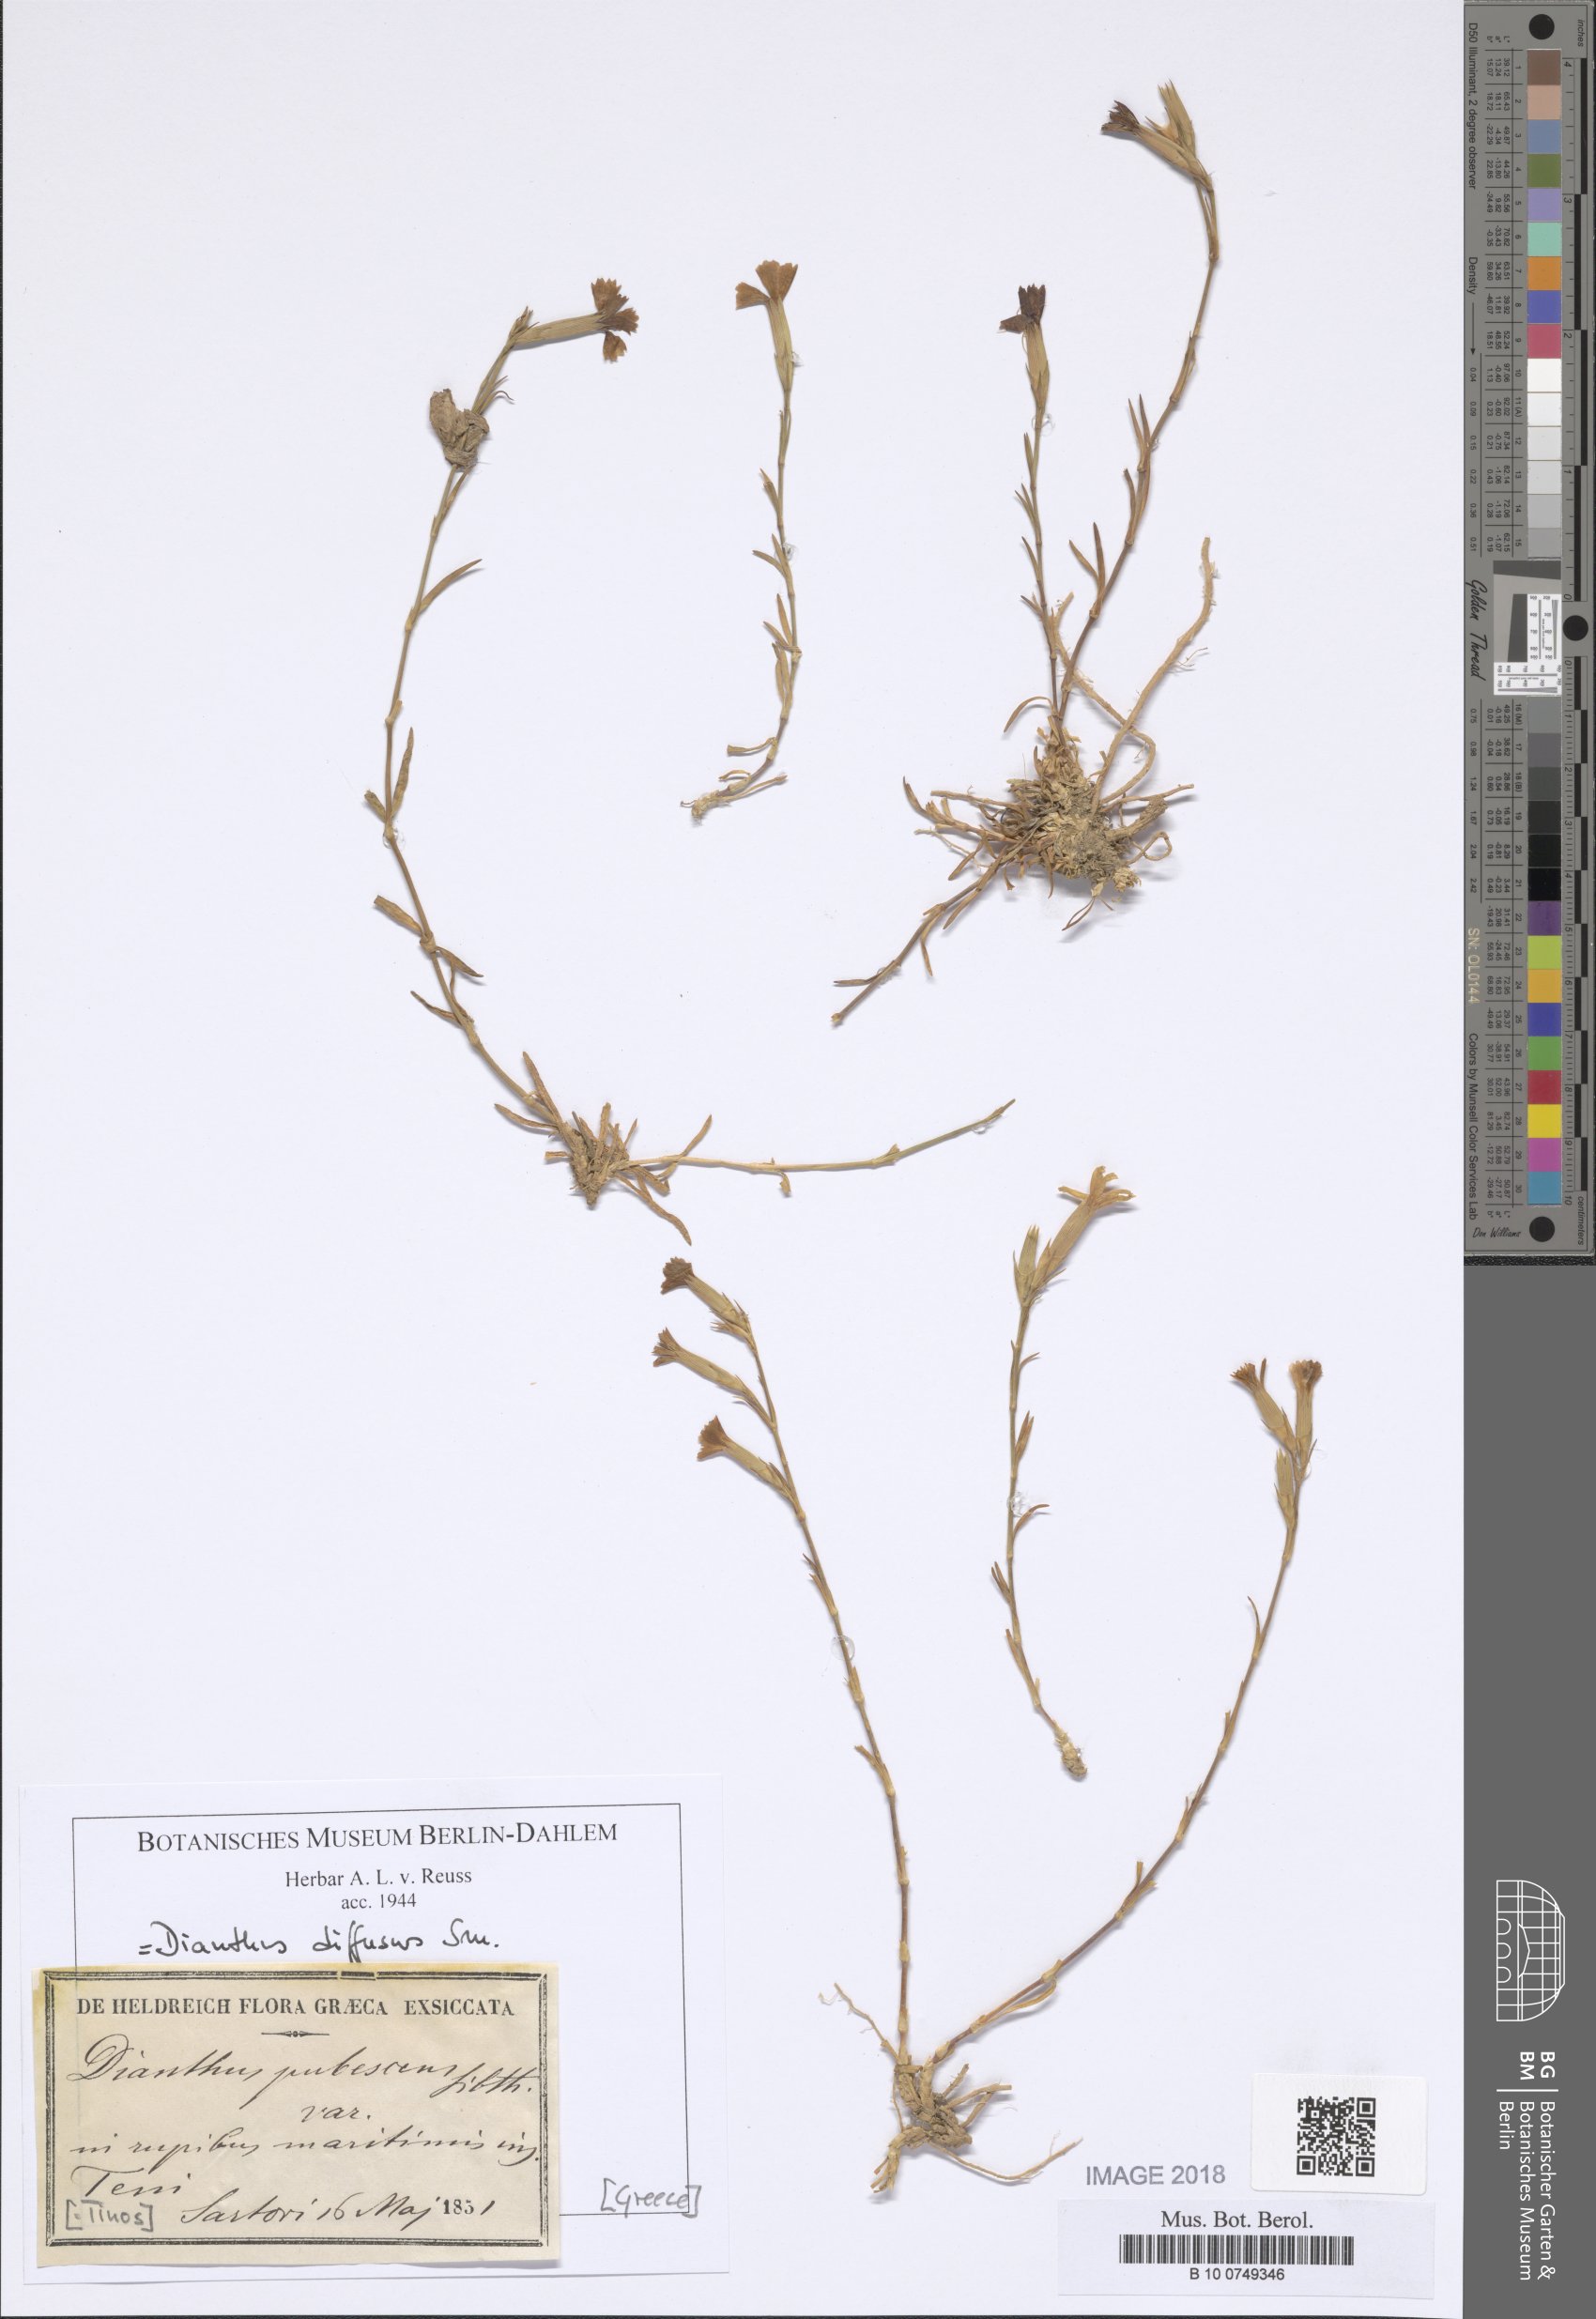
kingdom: Plantae
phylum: Tracheophyta
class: Magnoliopsida
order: Caryophyllales
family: Caryophyllaceae
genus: Dianthus
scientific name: Dianthus diffusus
